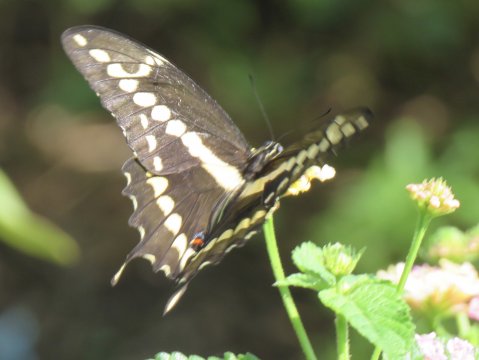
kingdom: Animalia
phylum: Arthropoda
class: Insecta
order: Lepidoptera
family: Papilionidae
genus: Papilio
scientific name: Papilio rumiko
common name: Western Giant Swallowtail
